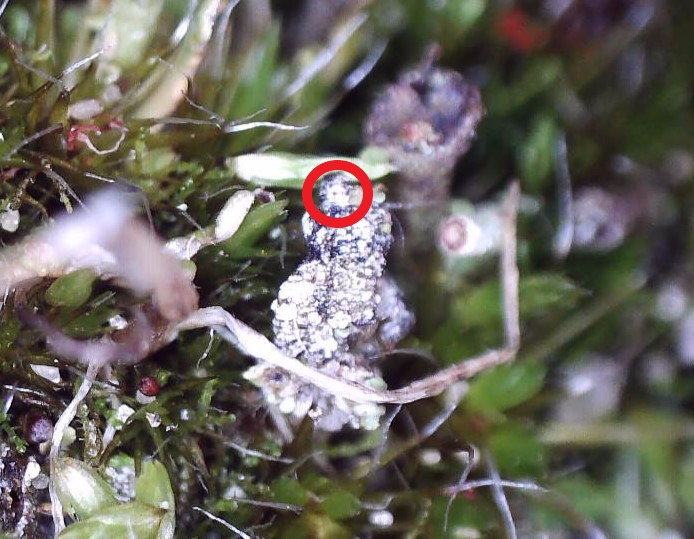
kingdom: Fungi
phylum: Ascomycota
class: Arthoniomycetes
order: Arthoniales
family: Arthoniaceae
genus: Briancoppinsia
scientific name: Briancoppinsia cytospora
